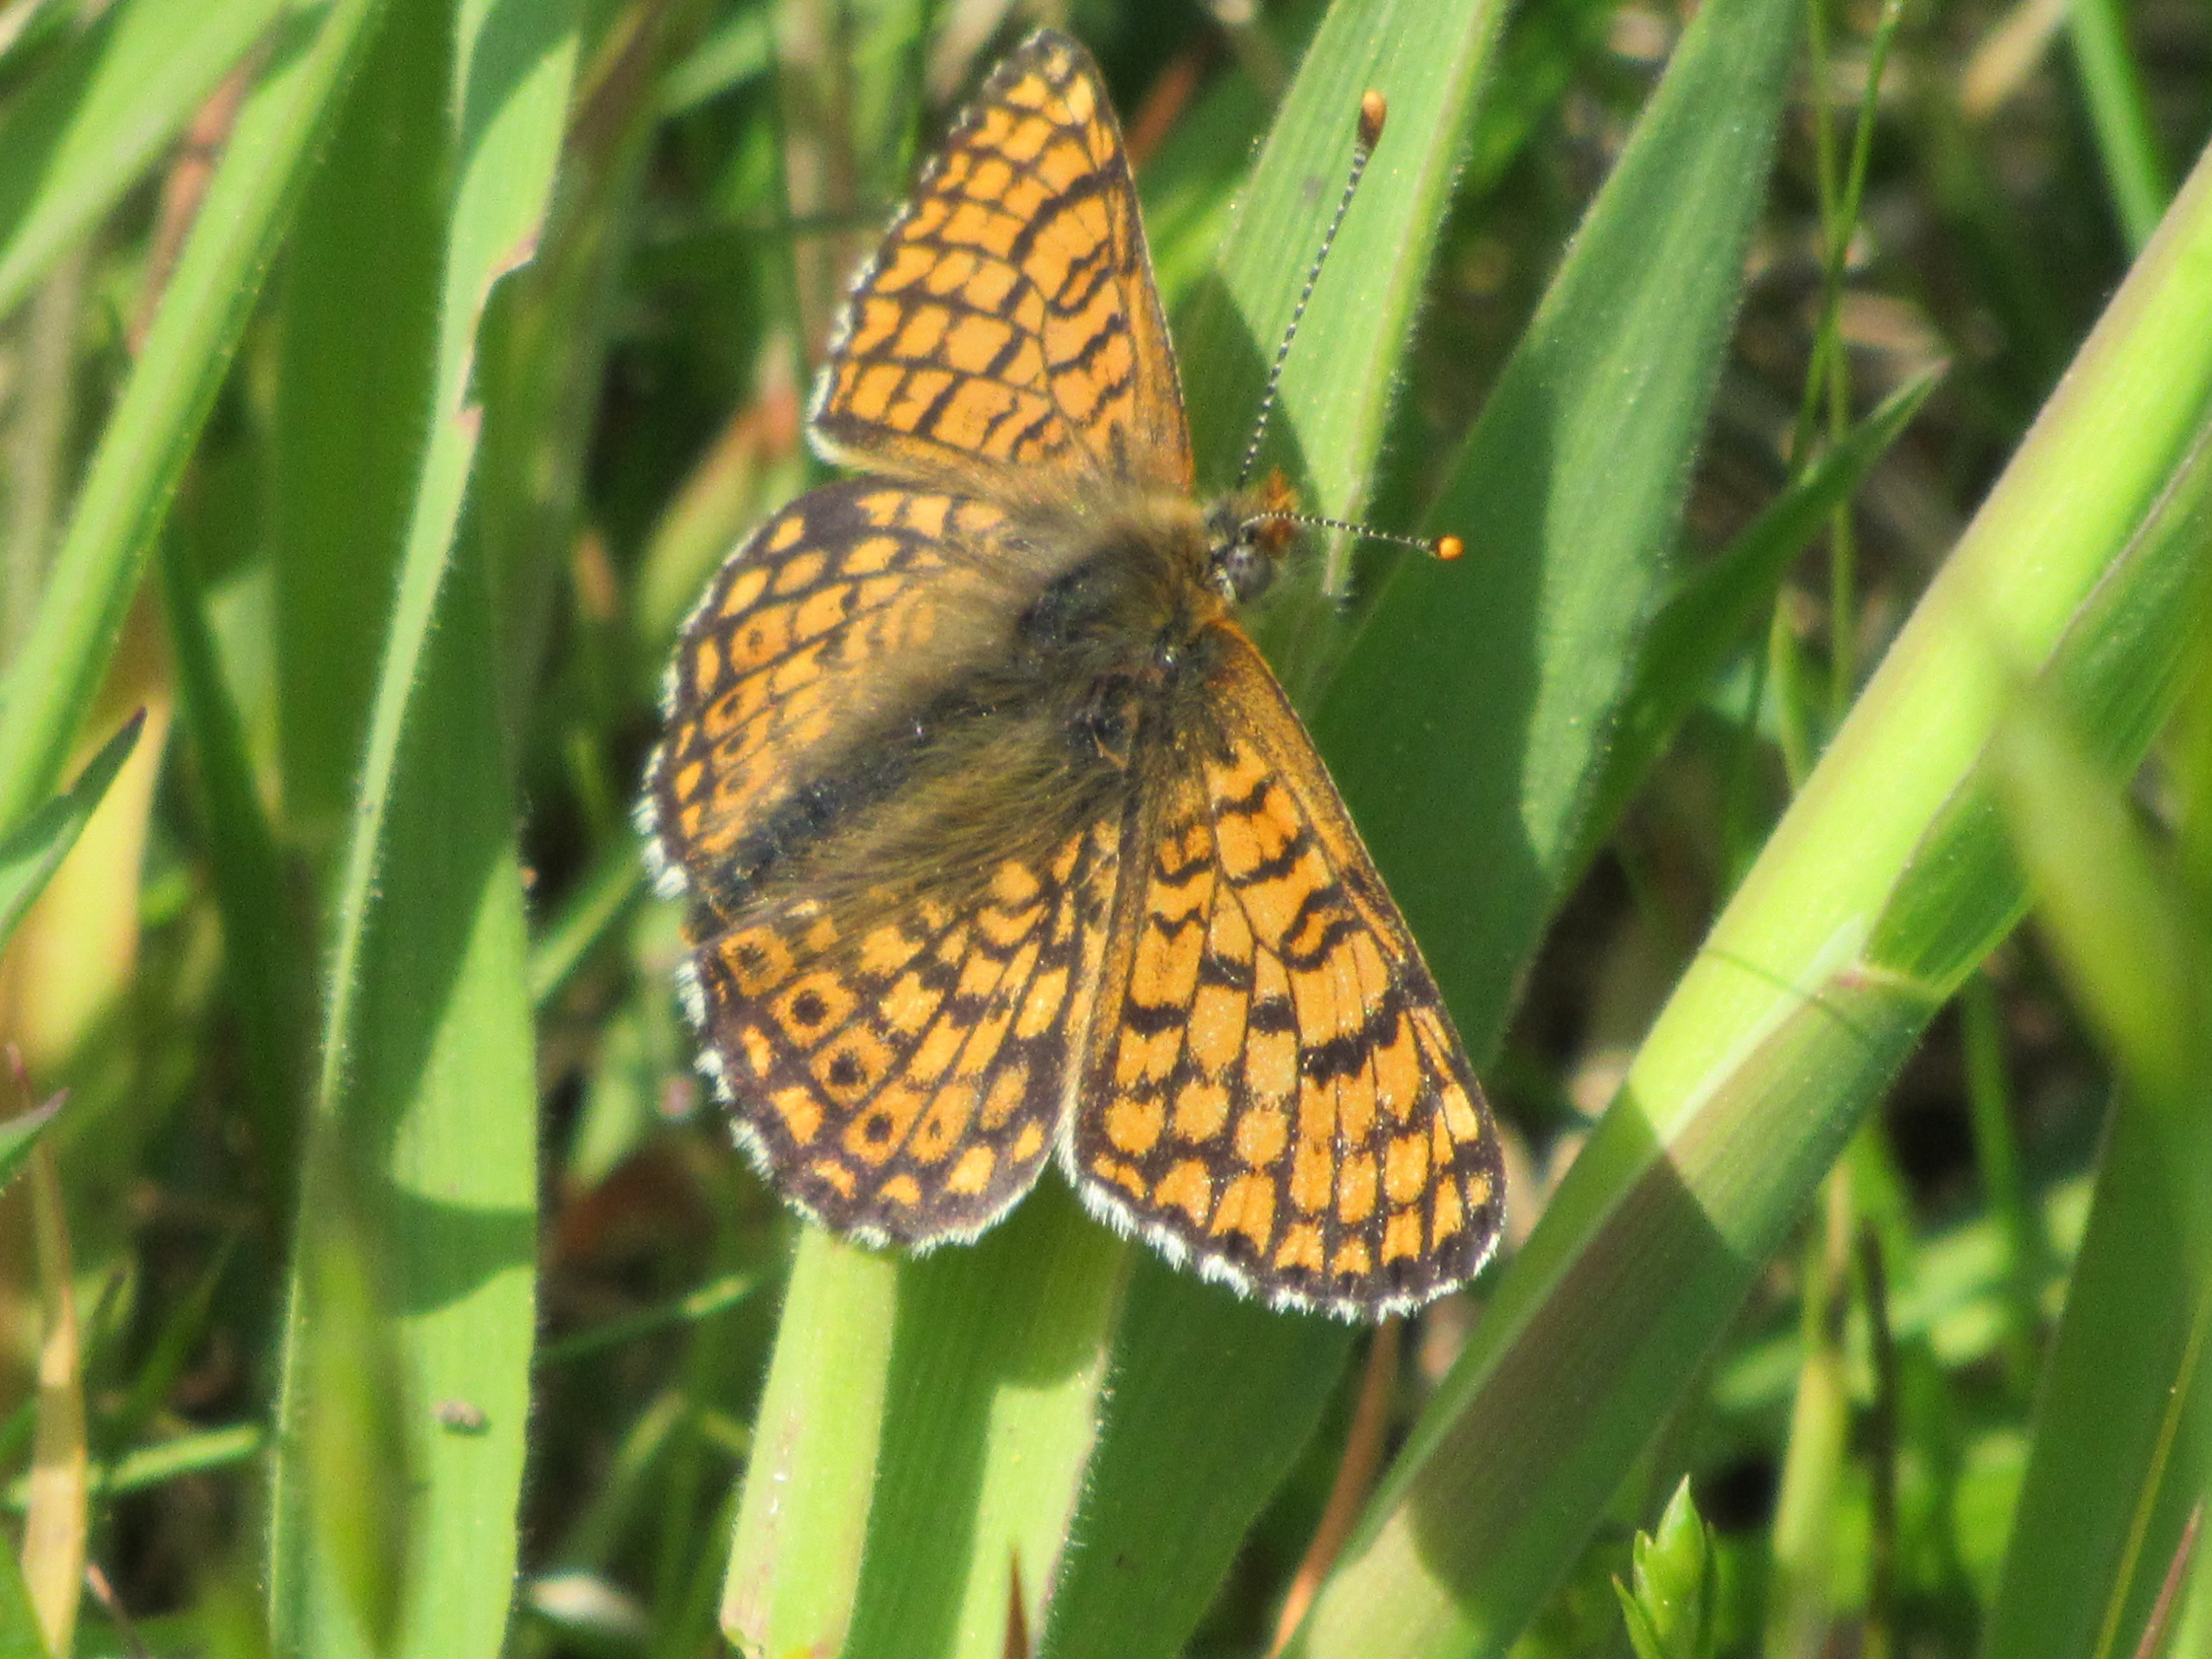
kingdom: Animalia
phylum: Arthropoda
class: Insecta
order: Lepidoptera
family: Nymphalidae
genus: Melitaea
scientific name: Melitaea cinxia
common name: Okkergul pletvinge
